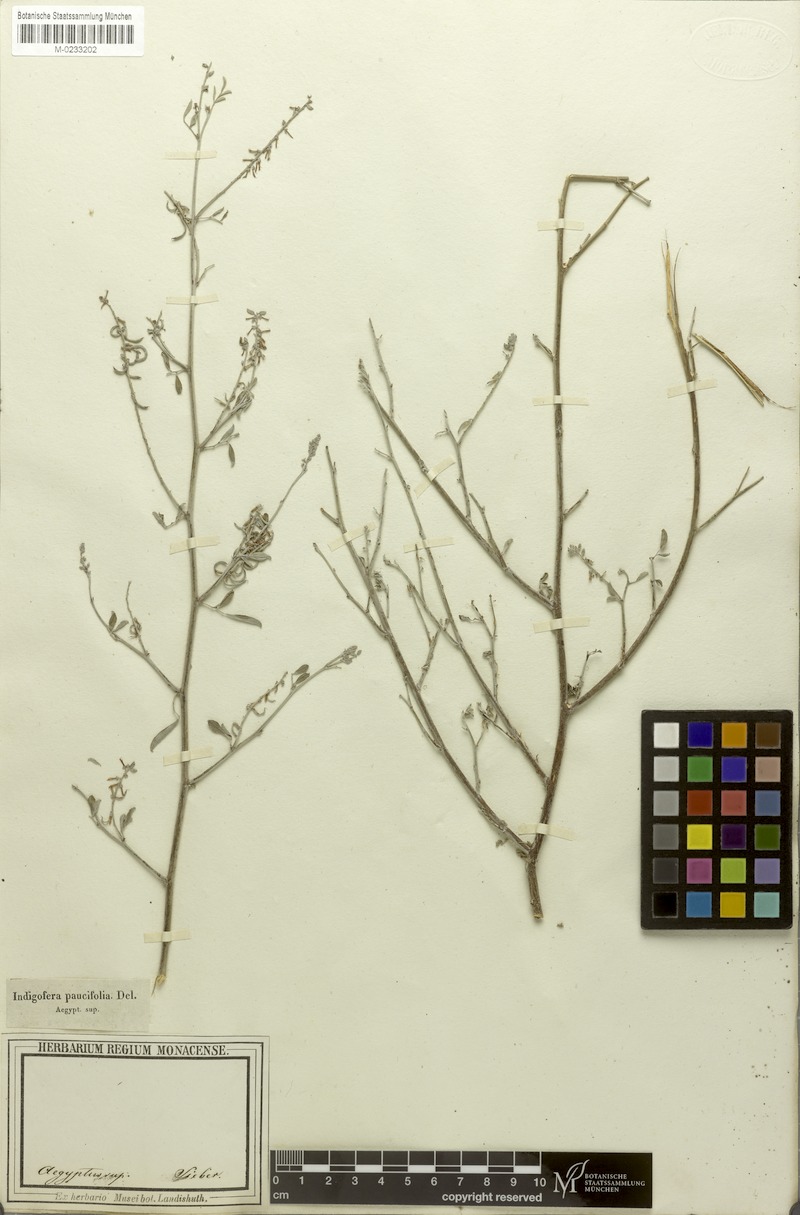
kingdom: Plantae
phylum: Tracheophyta
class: Magnoliopsida
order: Fabales
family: Fabaceae
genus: Indigofera
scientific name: Indigofera oblongifolia
